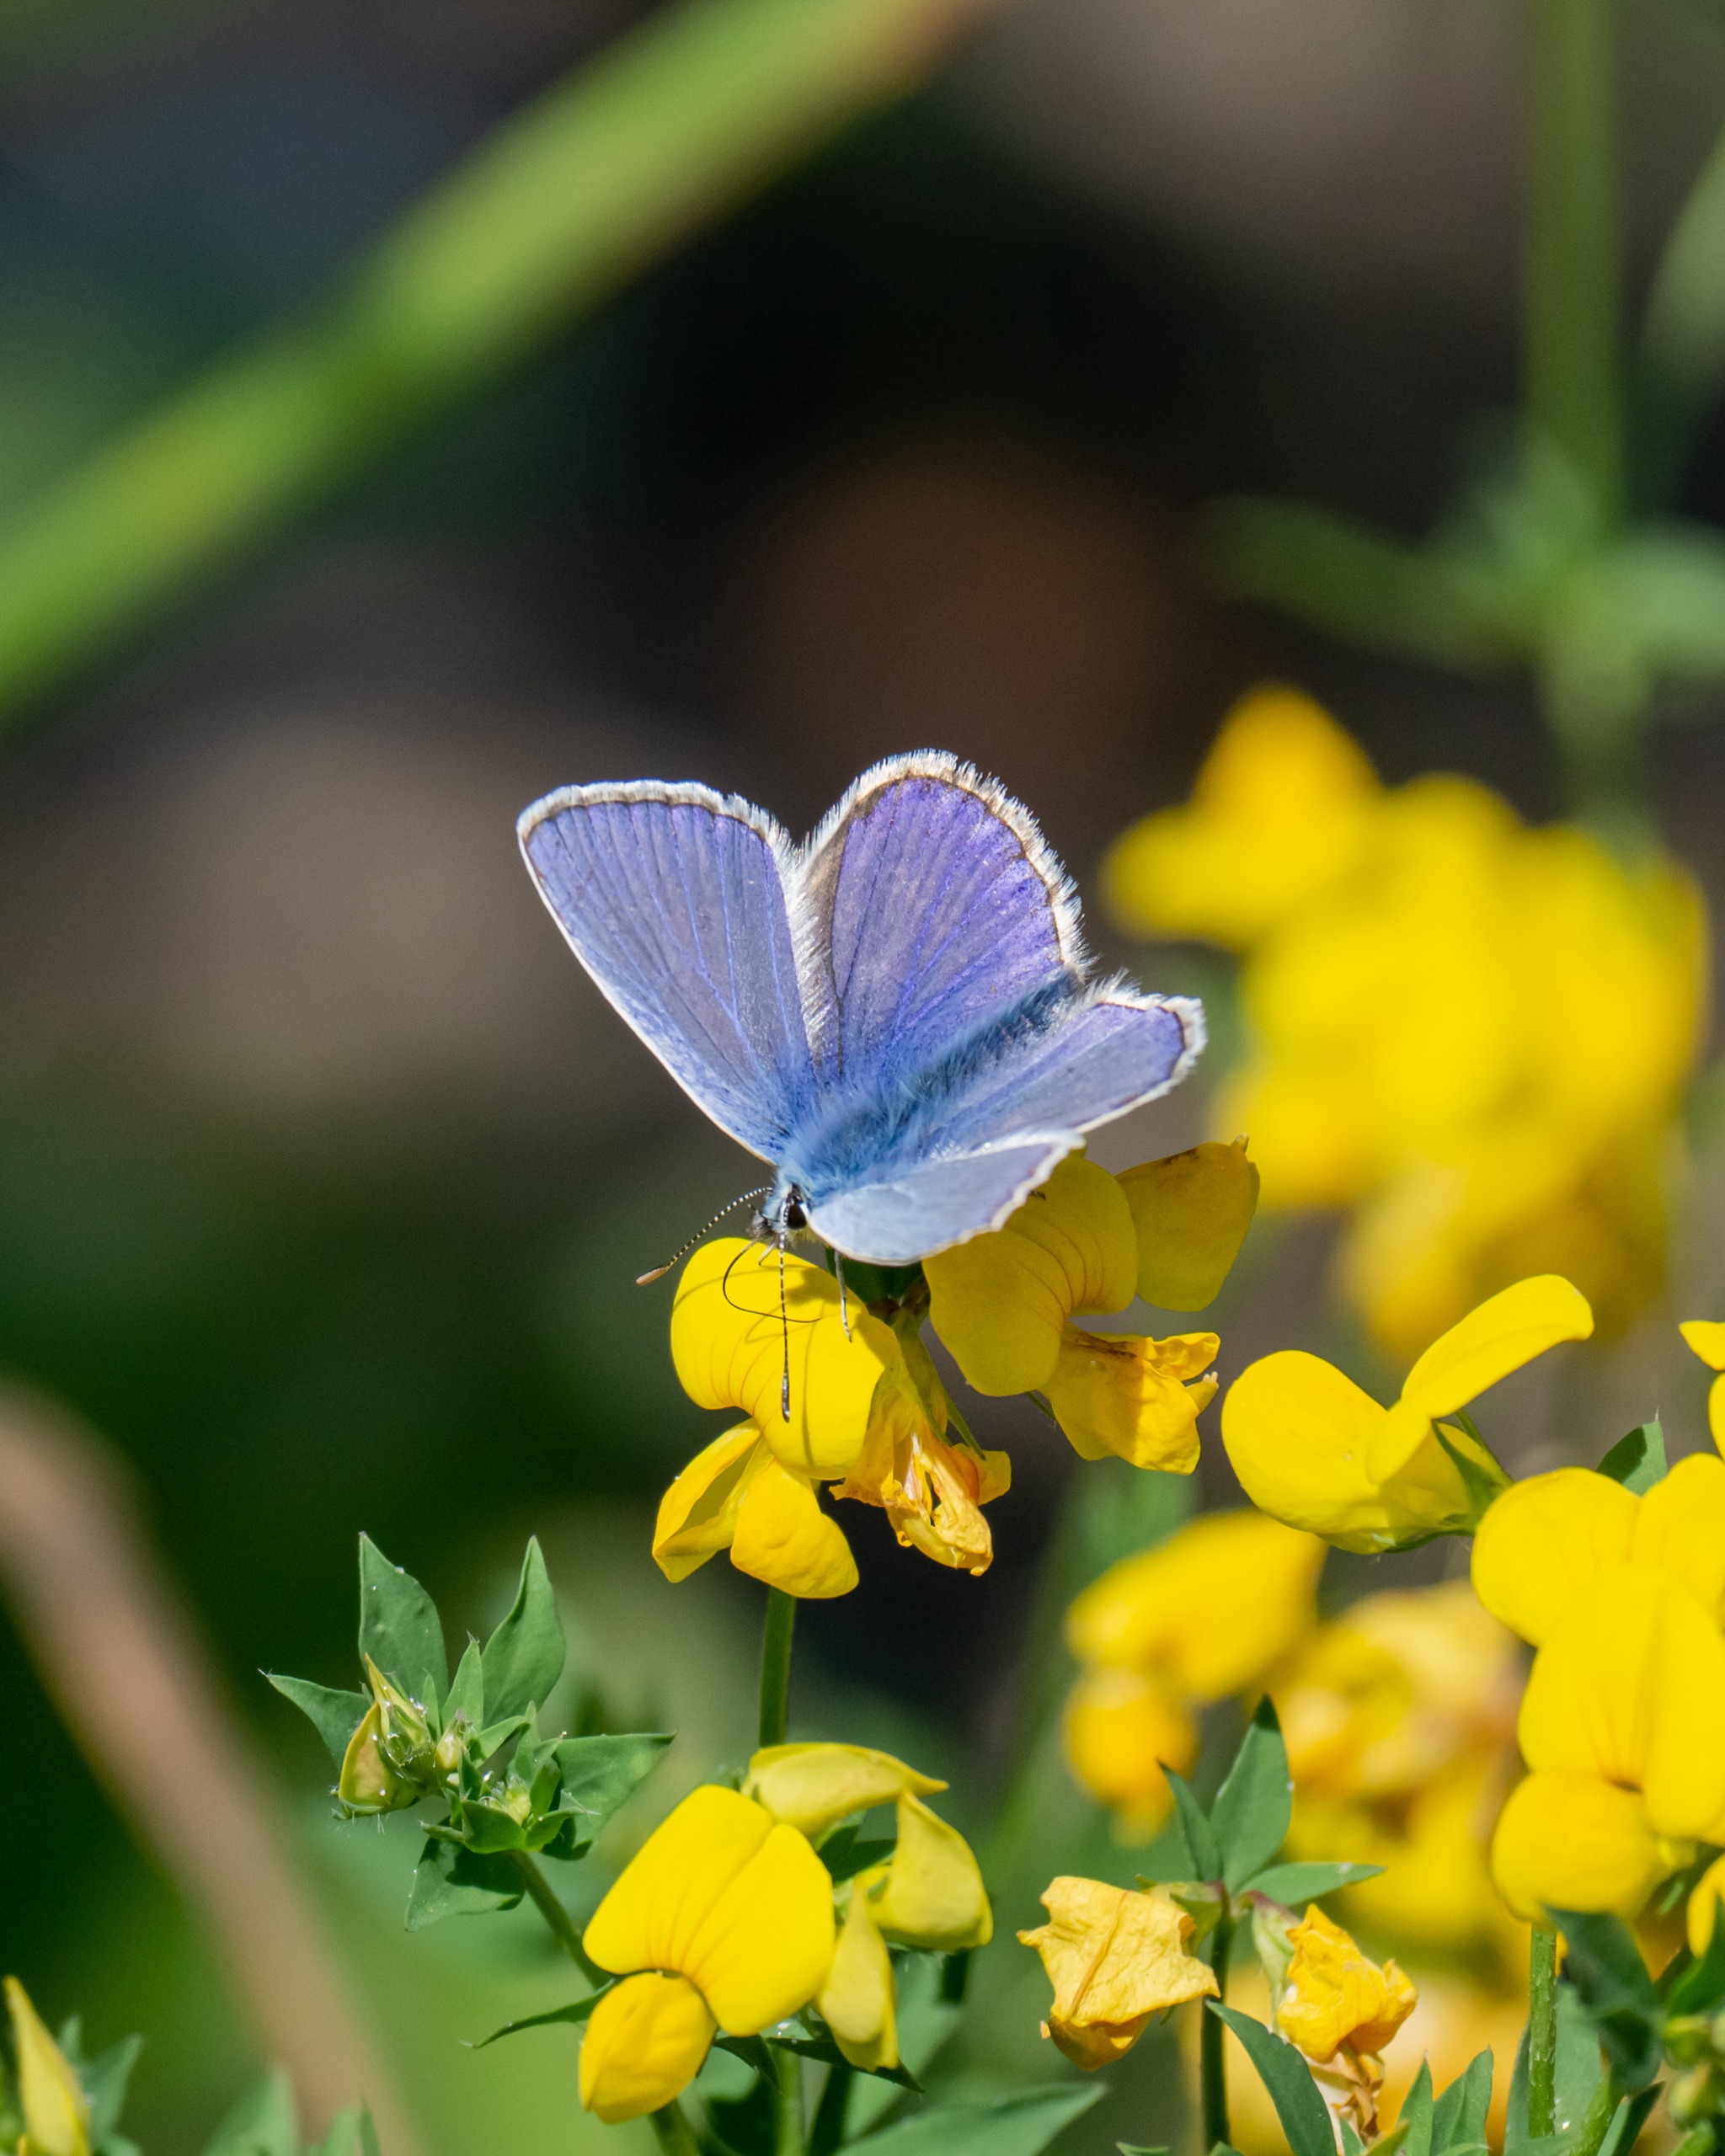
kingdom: Animalia
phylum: Arthropoda
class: Insecta
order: Lepidoptera
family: Lycaenidae
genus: Polyommatus
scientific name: Polyommatus icarus
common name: Almindelig blåfugl
